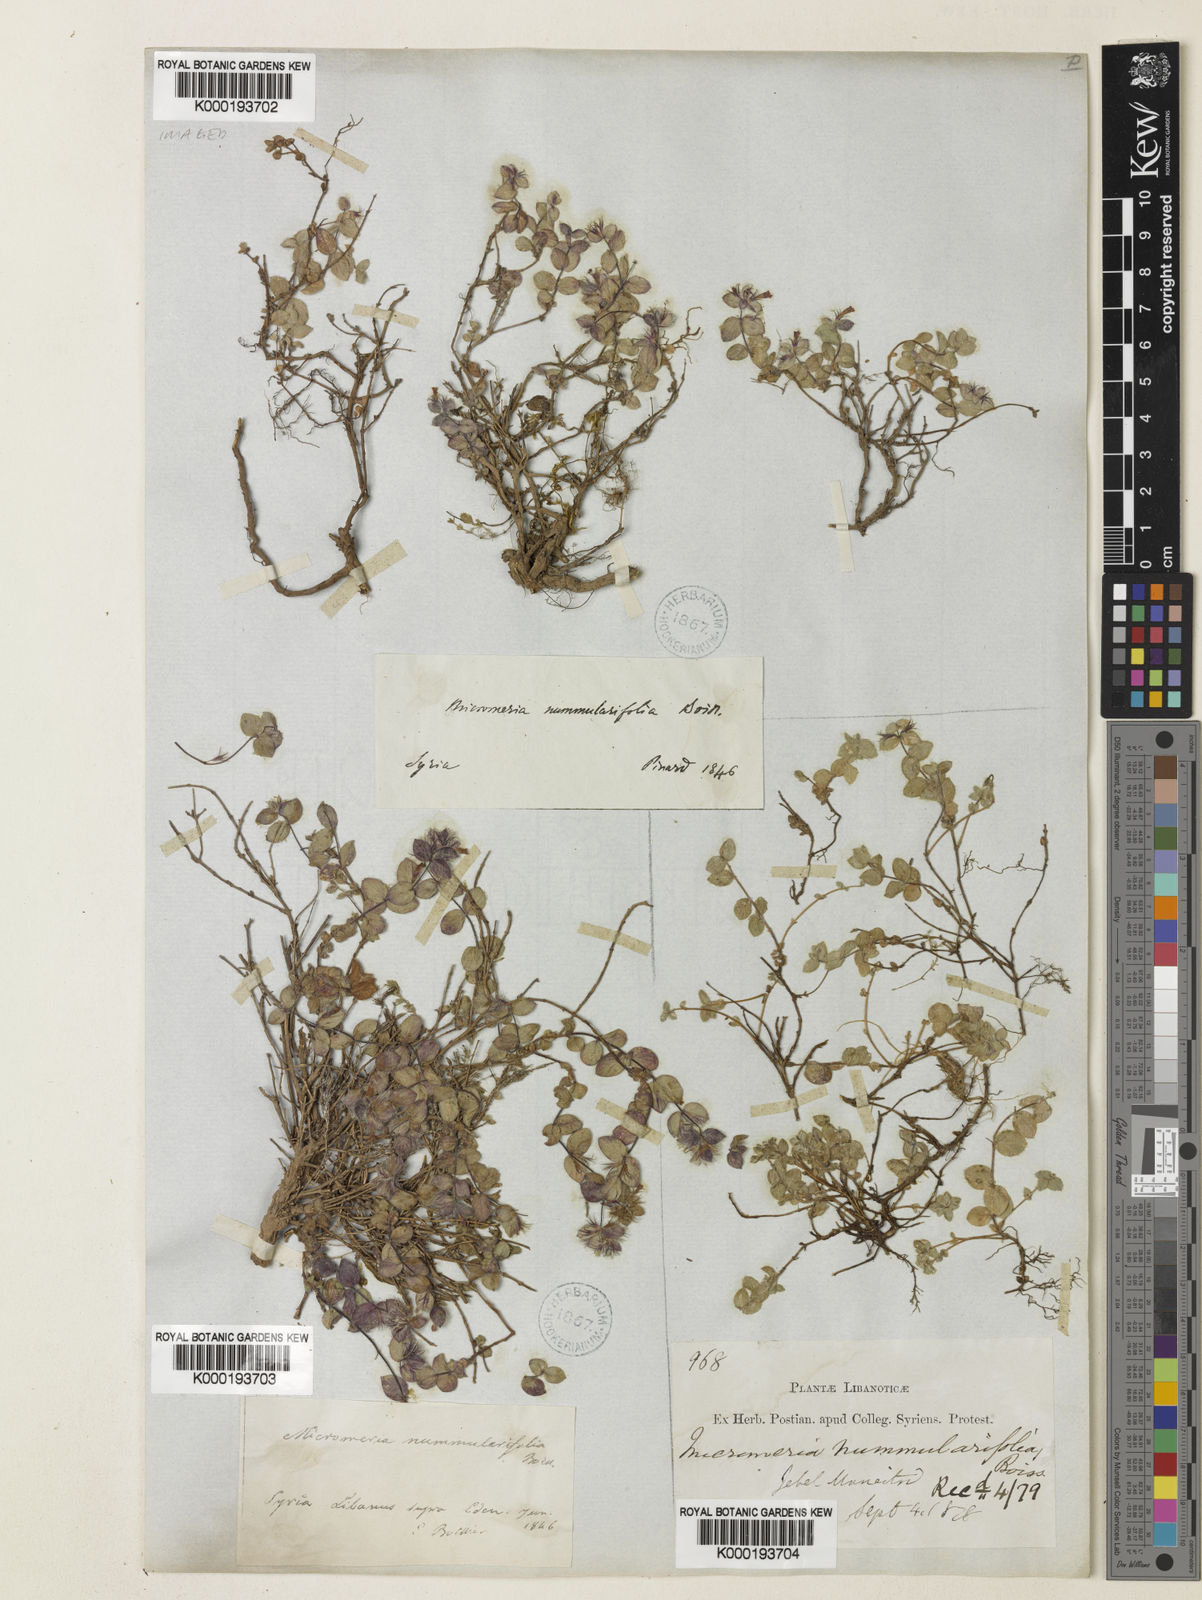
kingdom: Plantae
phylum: Tracheophyta
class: Magnoliopsida
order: Lamiales
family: Lamiaceae
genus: Clinopodium
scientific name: Clinopodium nummulariifolium
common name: Nummular-leaved savory
